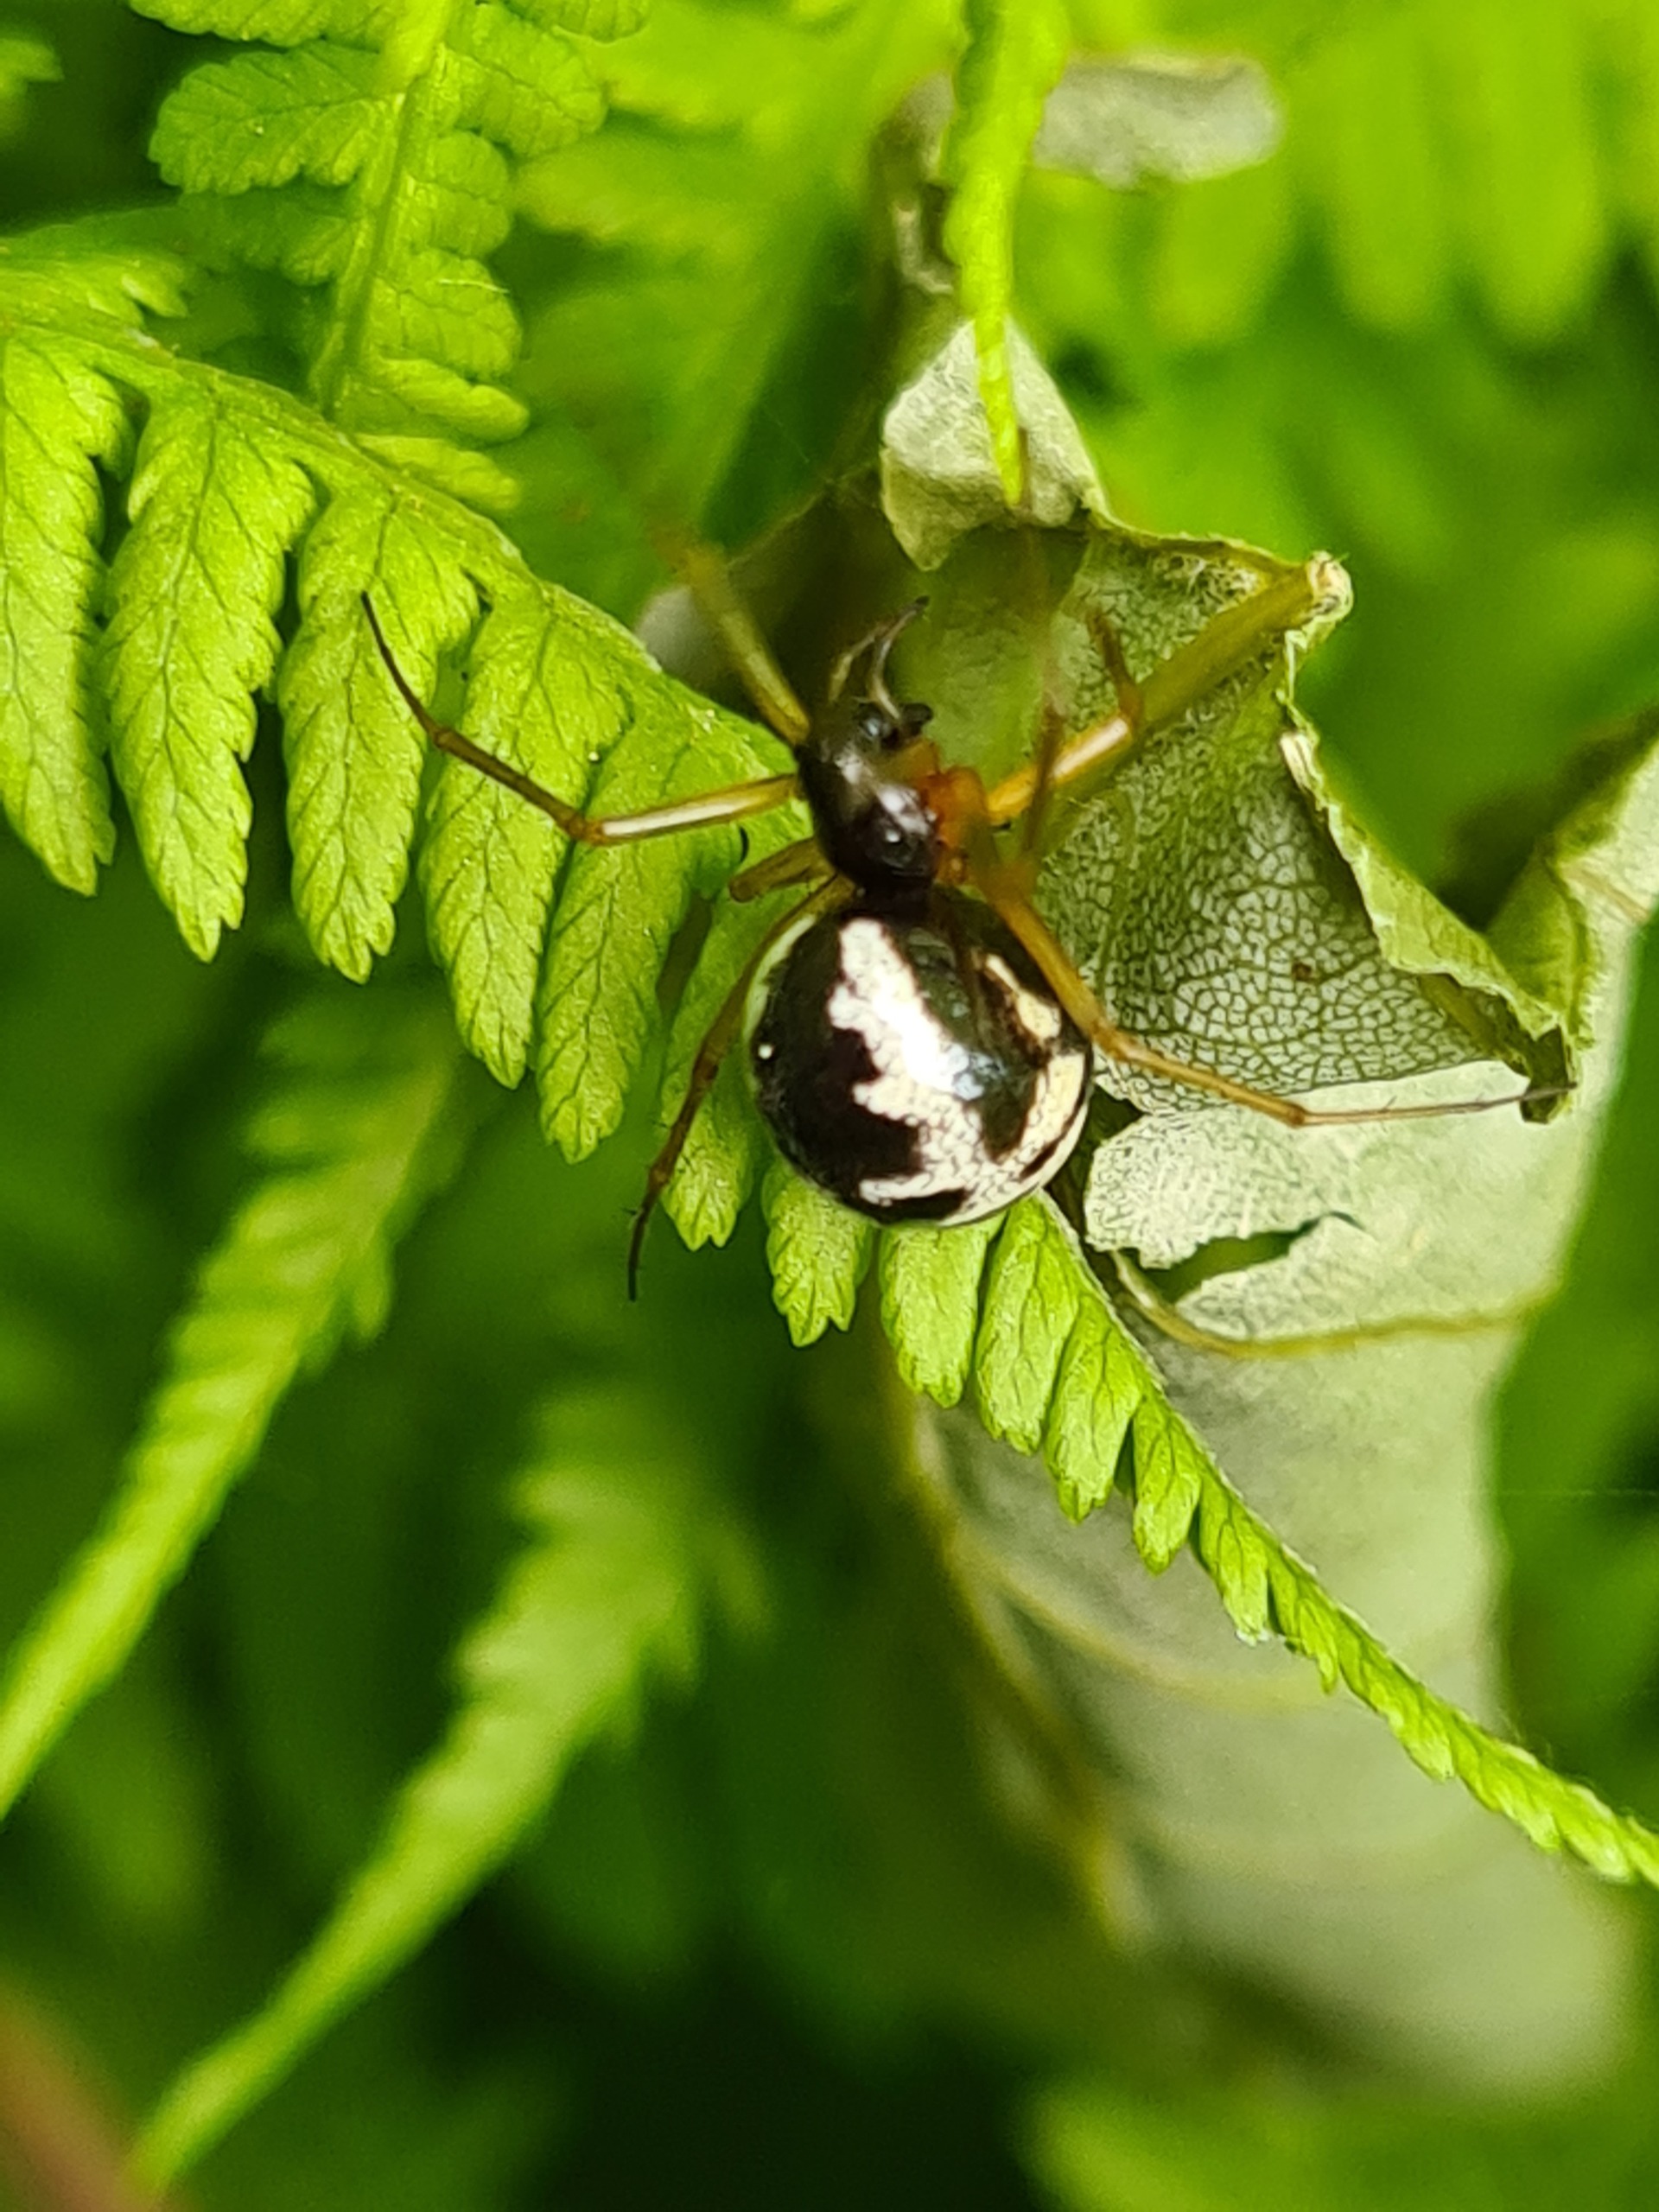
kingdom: Animalia
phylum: Arthropoda
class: Arachnida
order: Araneae
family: Linyphiidae
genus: Linyphia
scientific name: Linyphia hortensis
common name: Skovbaldakinspinder
